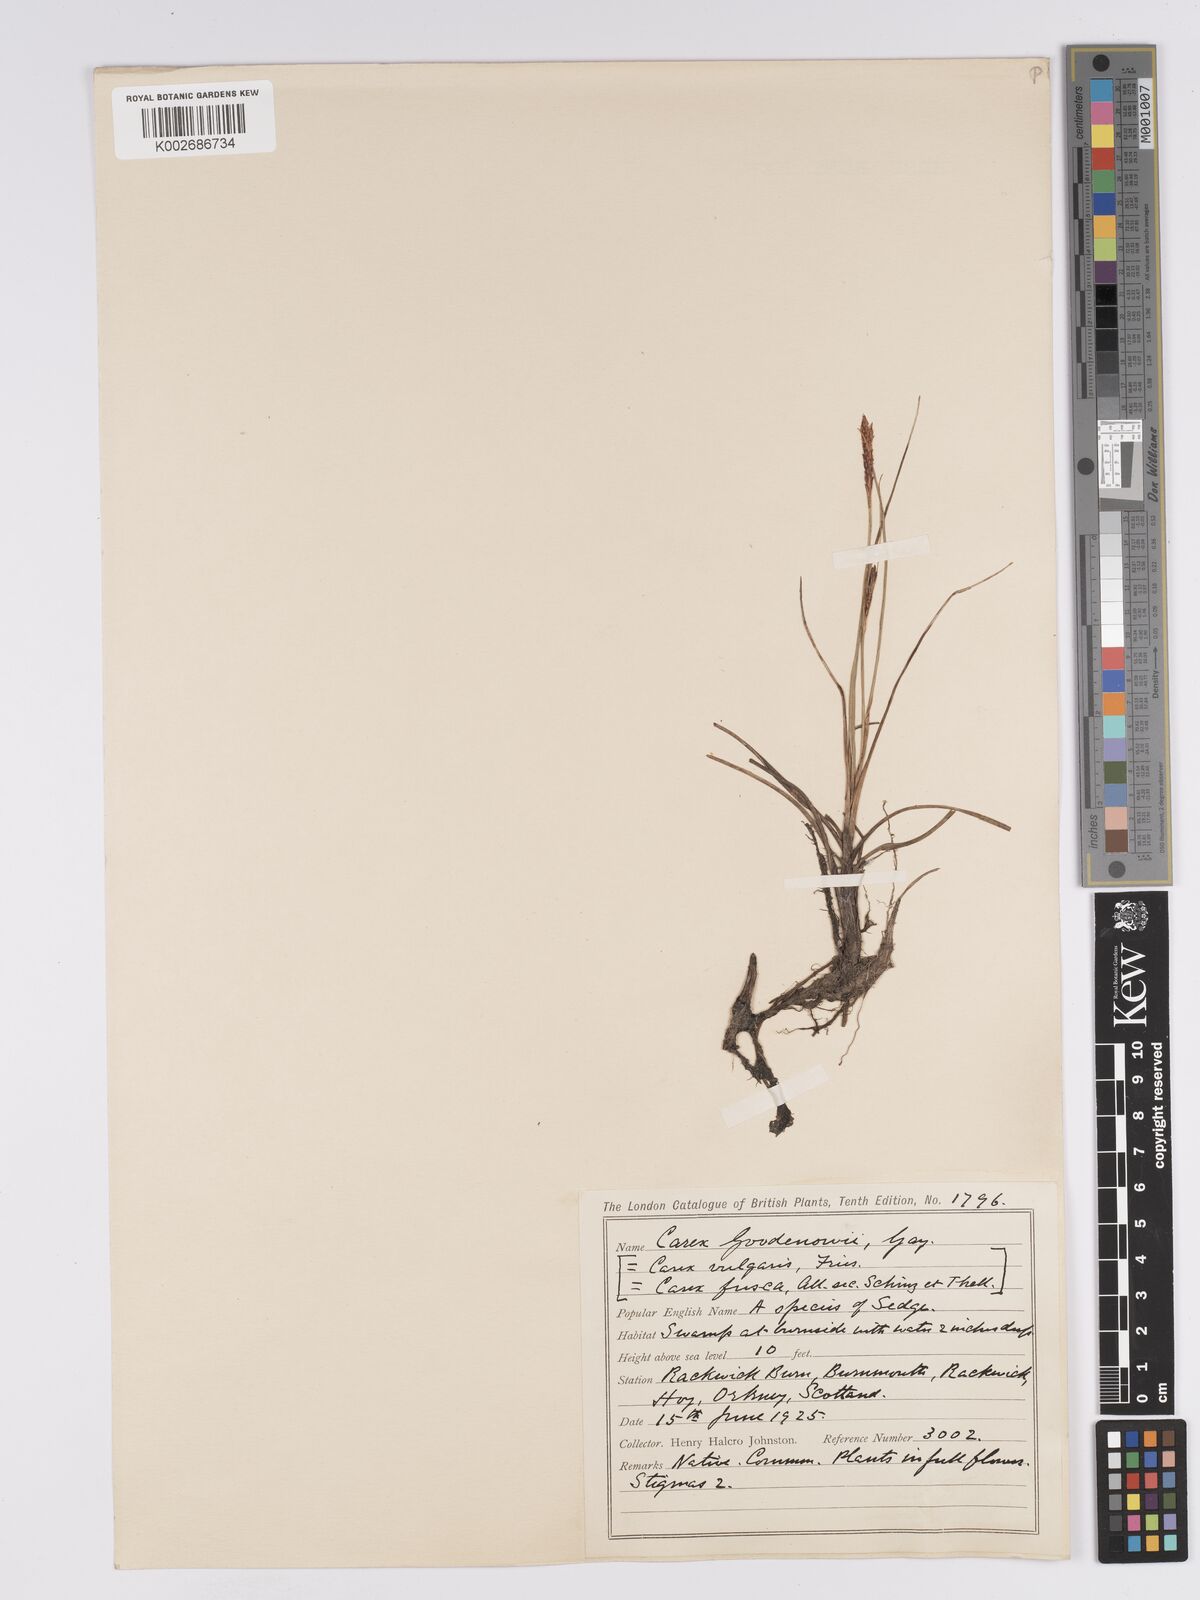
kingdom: Plantae
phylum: Tracheophyta
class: Liliopsida
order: Poales
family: Cyperaceae
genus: Carex
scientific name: Carex aquatilis
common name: Water sedge
